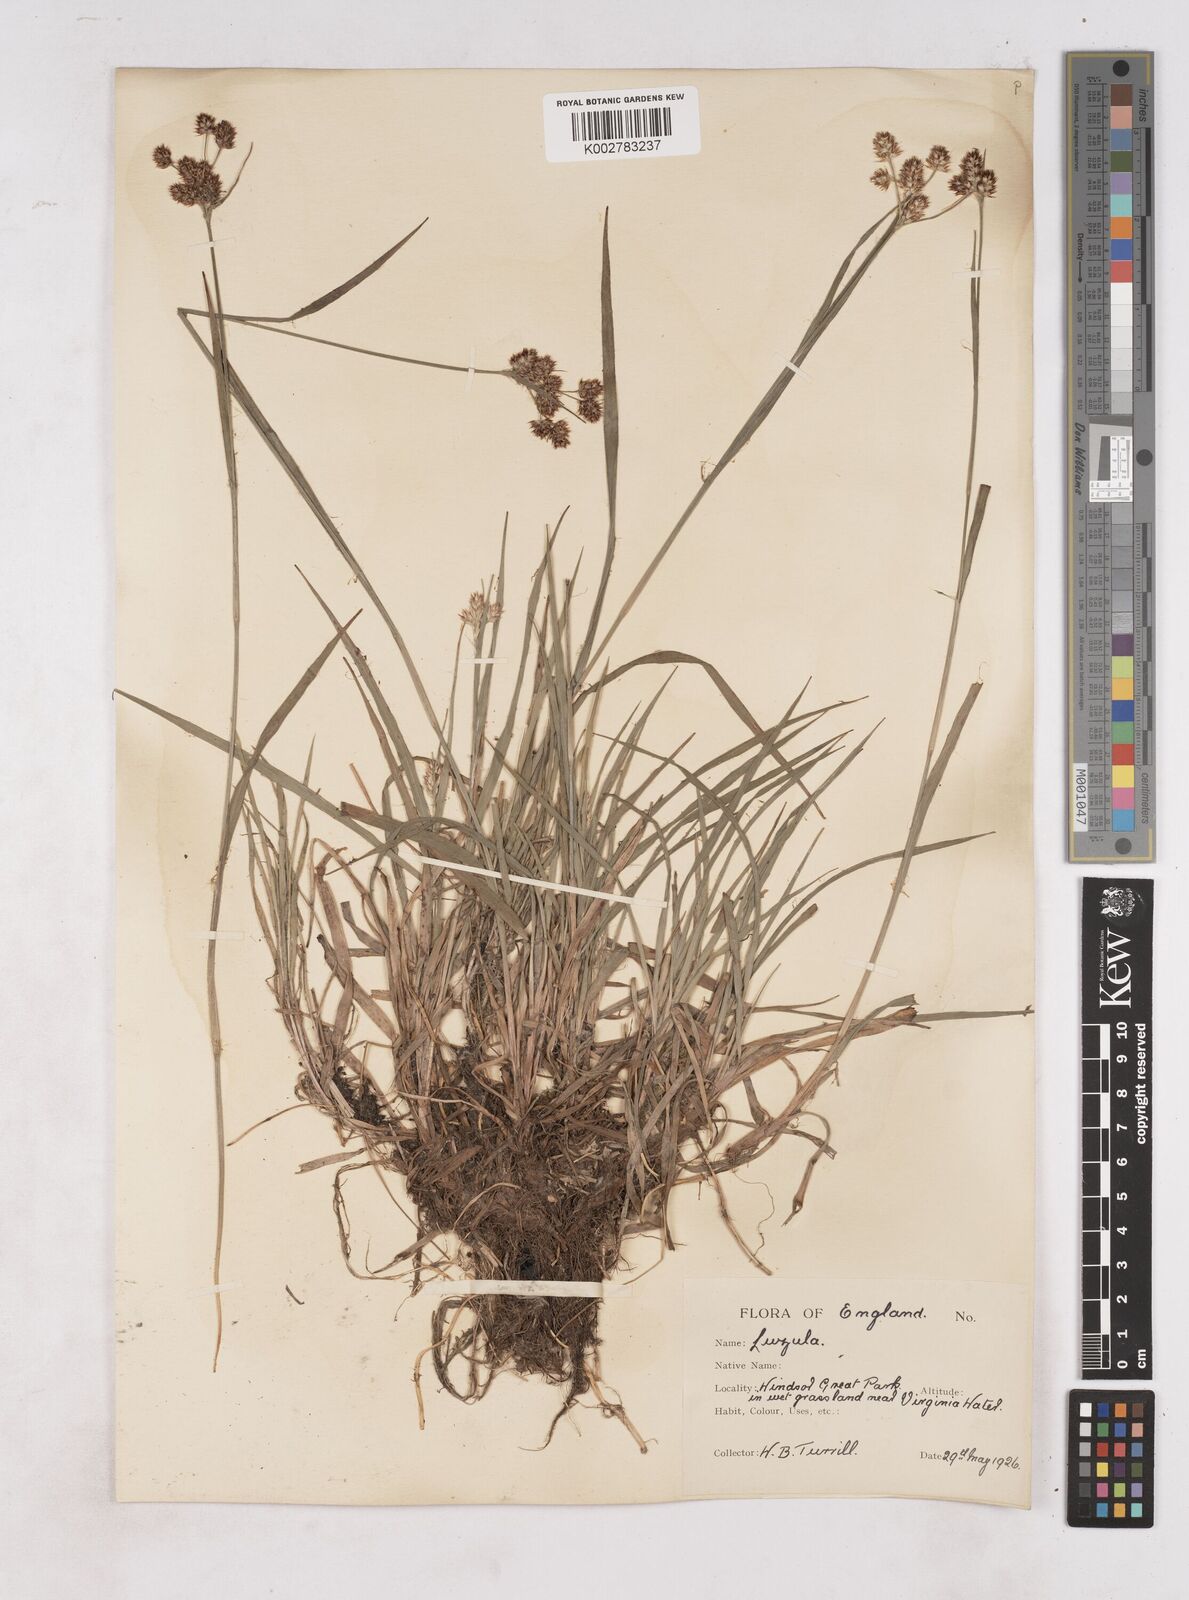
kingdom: Plantae
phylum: Tracheophyta
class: Liliopsida
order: Poales
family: Juncaceae
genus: Luzula
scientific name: Luzula multiflora
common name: Heath wood-rush
